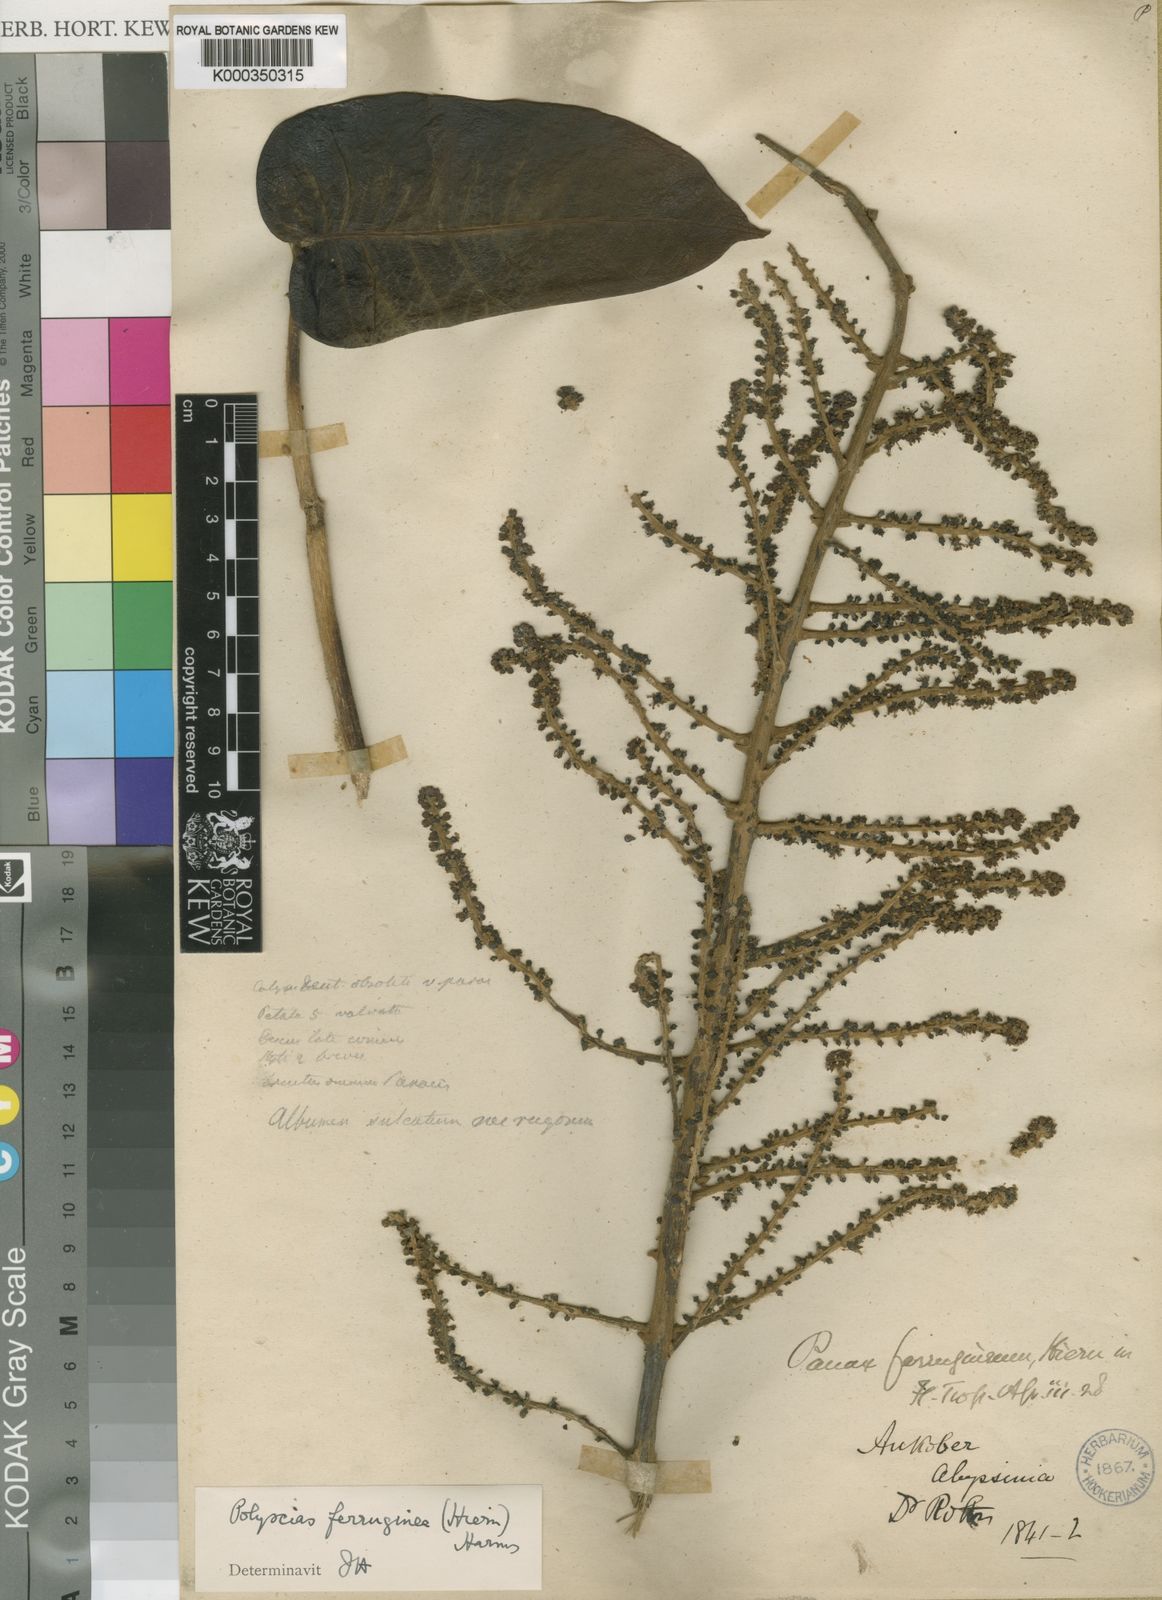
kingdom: Plantae
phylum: Tracheophyta
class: Magnoliopsida
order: Apiales
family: Araliaceae
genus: Polyscias
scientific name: Polyscias fulva
